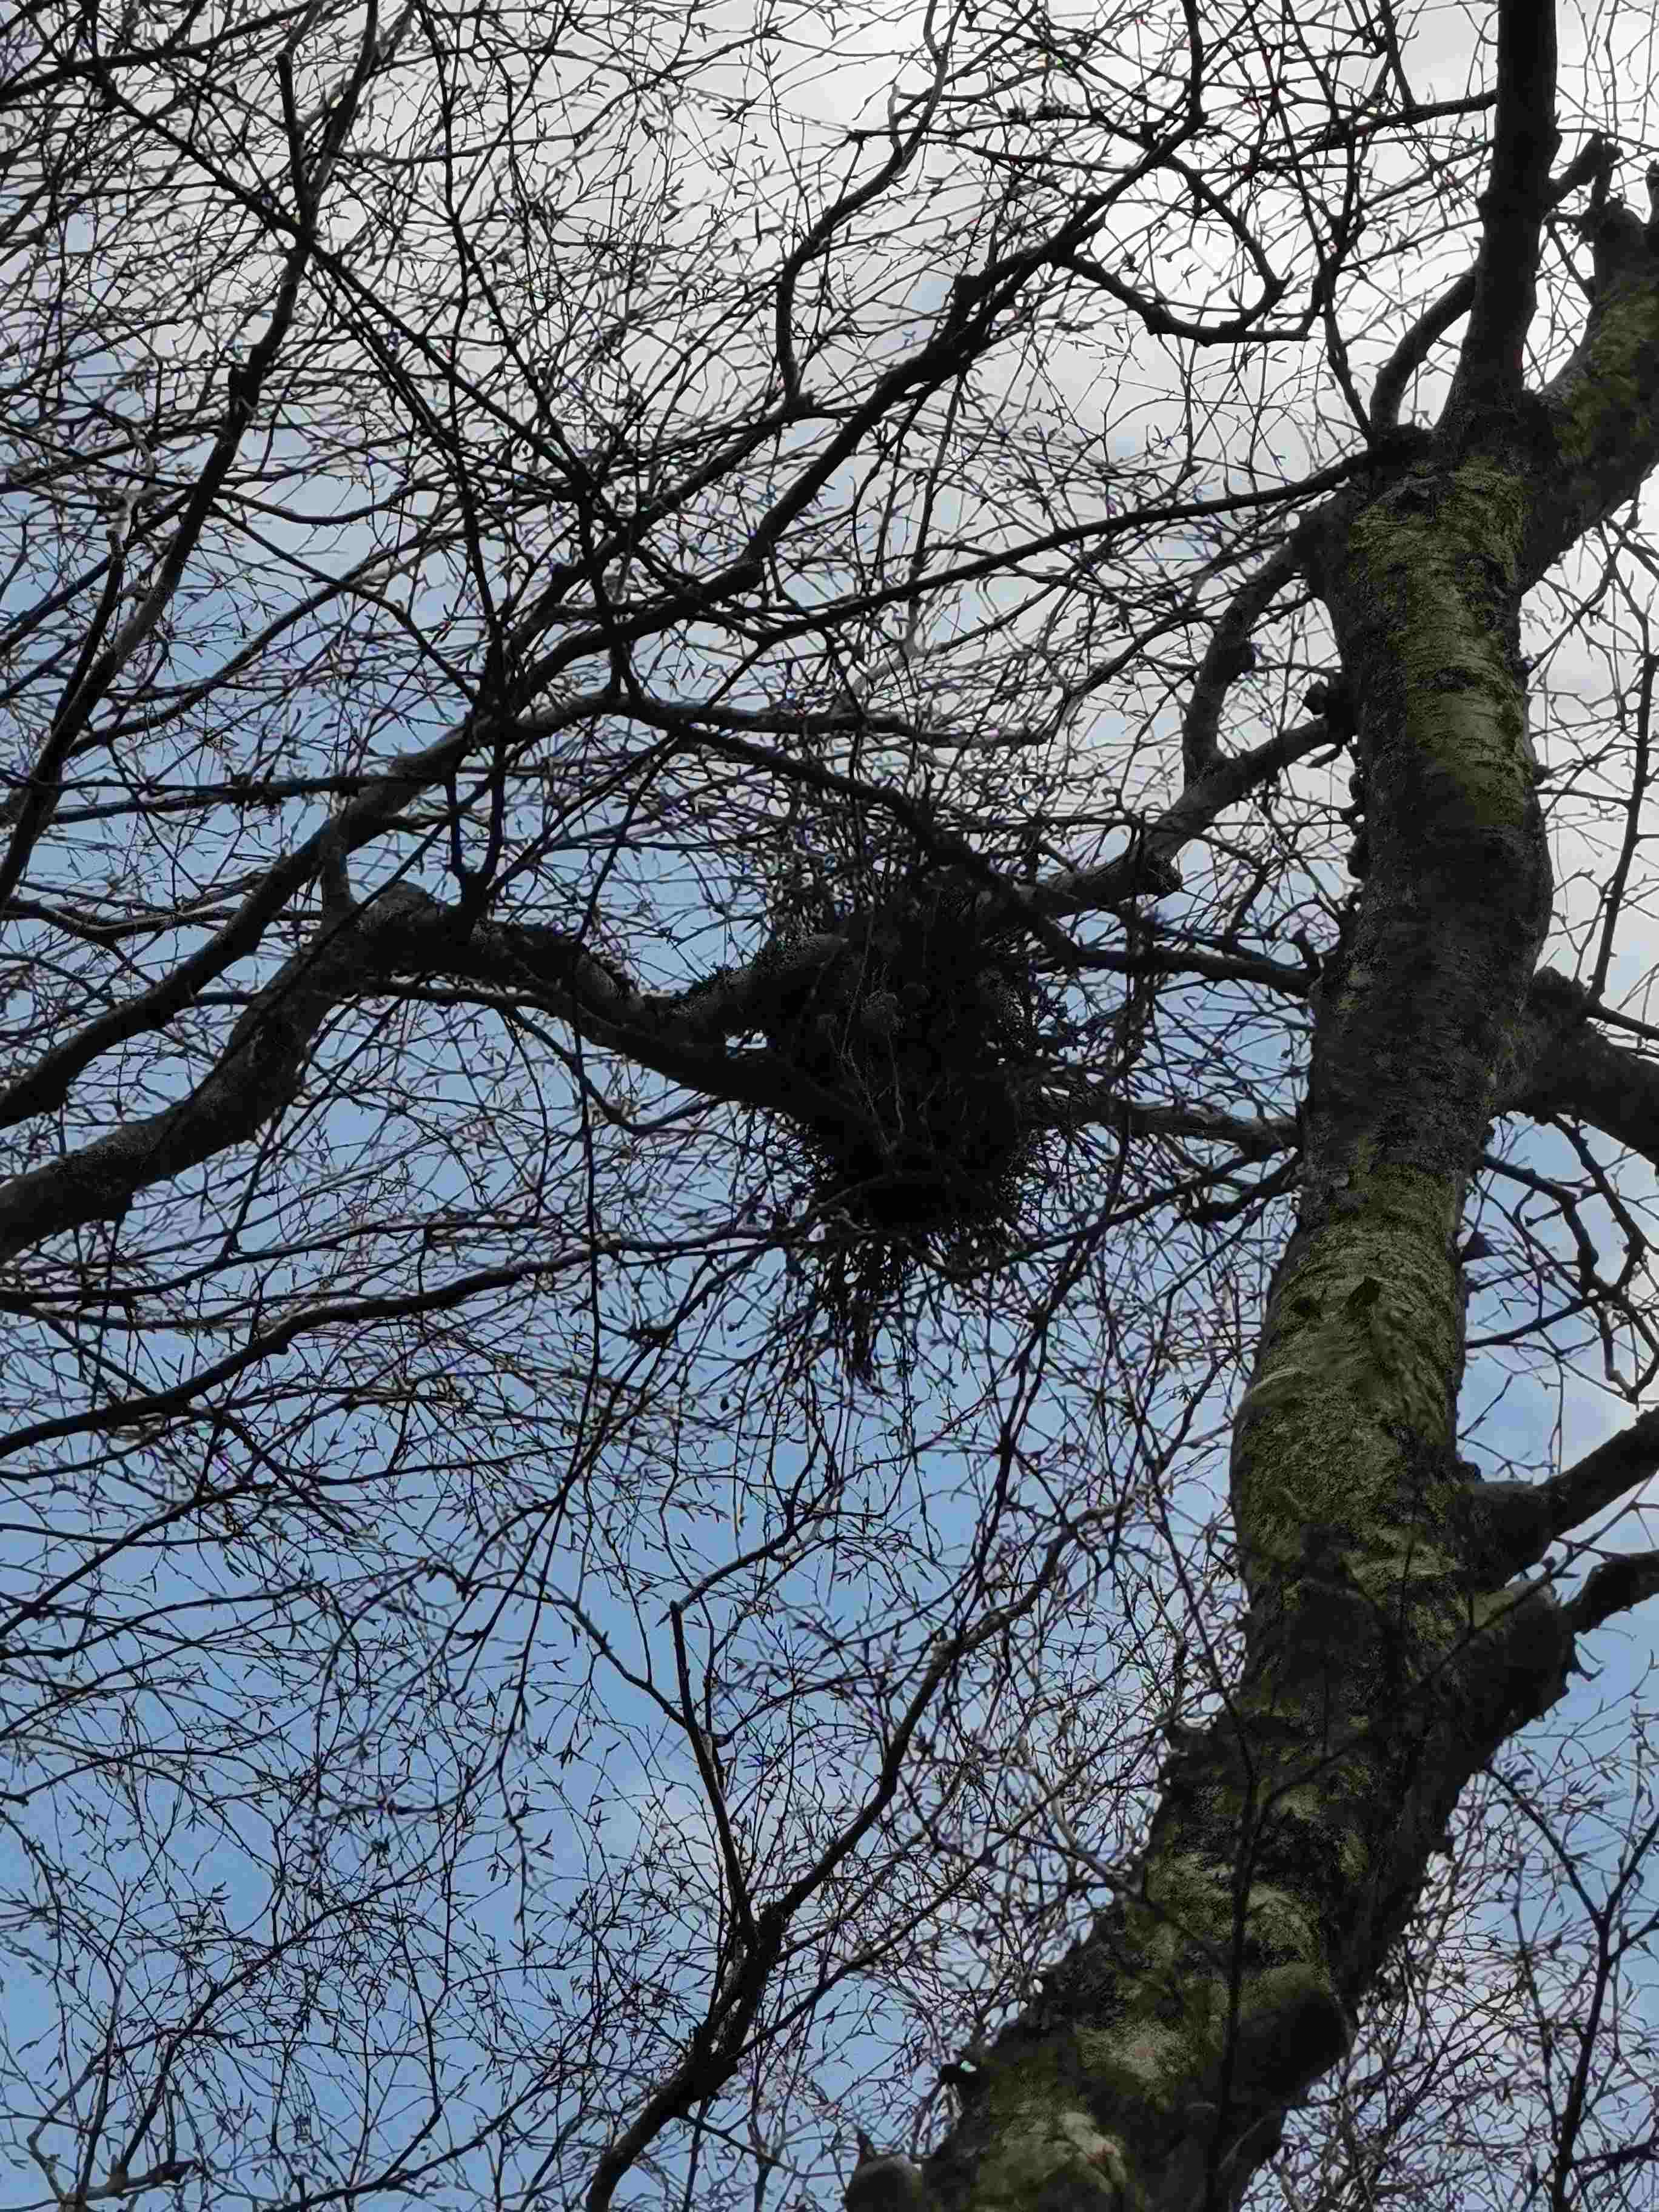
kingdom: Fungi
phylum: Ascomycota
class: Taphrinomycetes
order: Taphrinales
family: Taphrinaceae
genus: Taphrina
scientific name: Taphrina betulina
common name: hekse-sækdug
